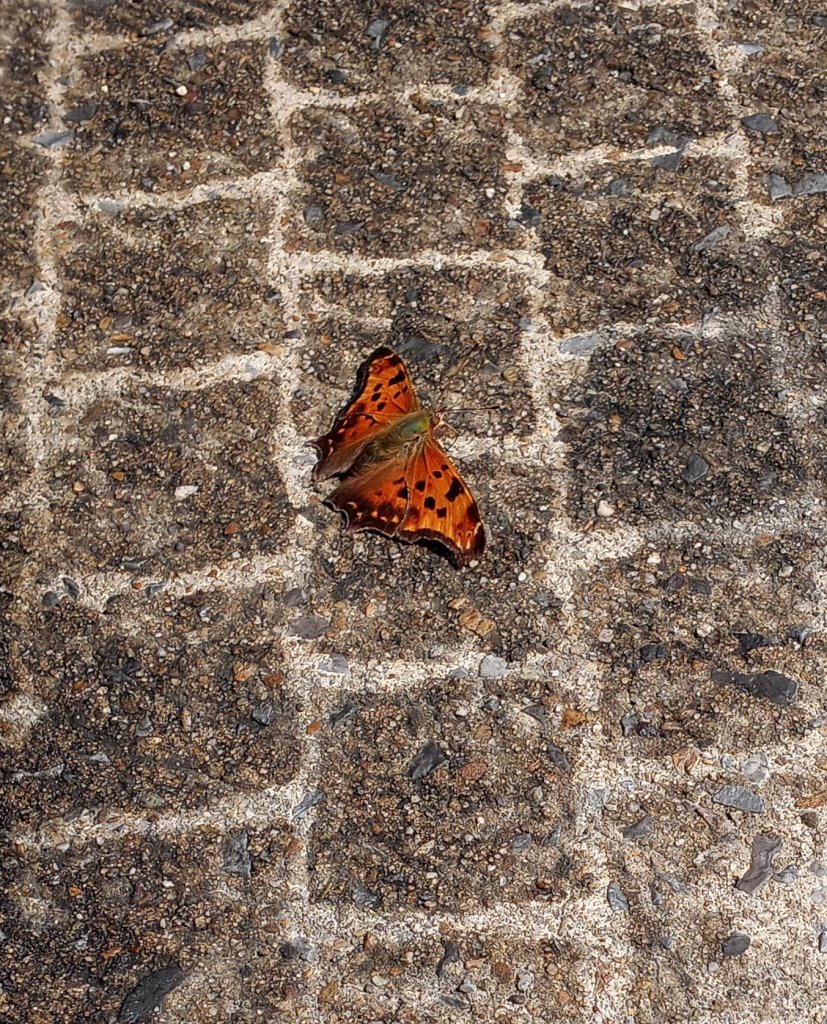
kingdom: Animalia
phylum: Arthropoda
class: Insecta
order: Lepidoptera
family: Nymphalidae
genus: Polygonia
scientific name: Polygonia comma
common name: Eastern Comma
